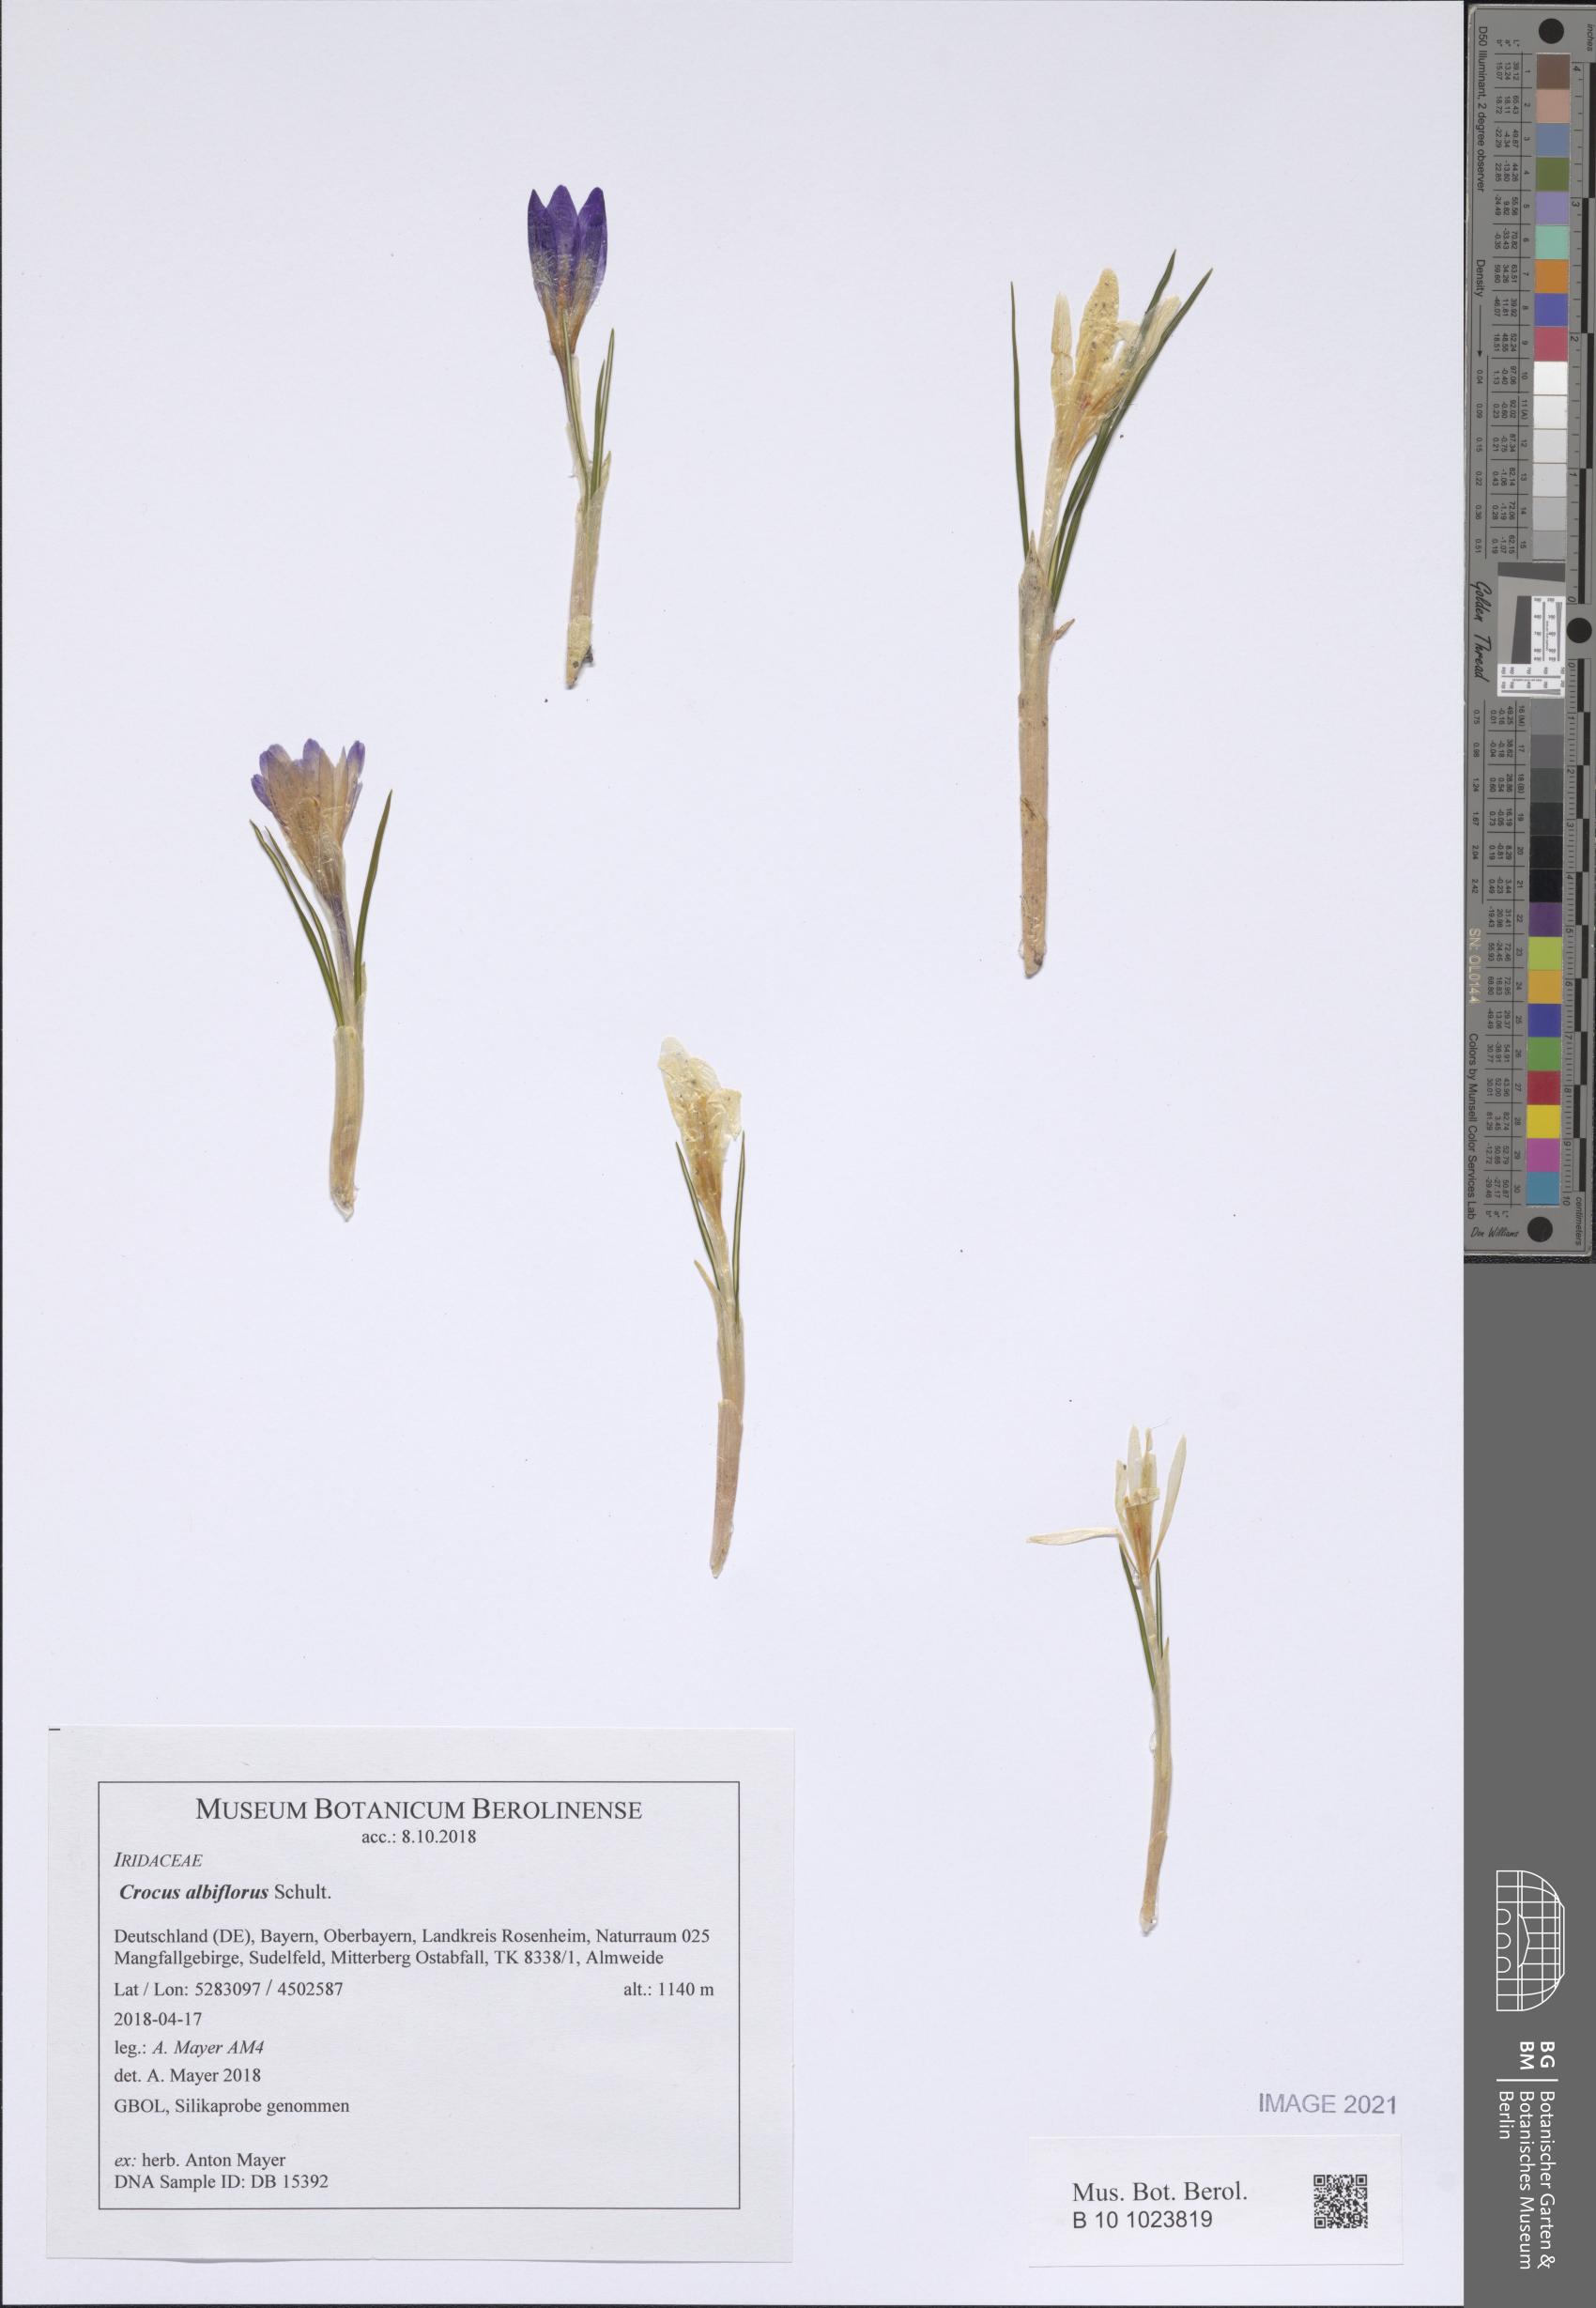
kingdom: Plantae
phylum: Tracheophyta
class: Liliopsida
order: Asparagales
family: Iridaceae
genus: Crocus
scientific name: Crocus vernus
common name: Spring crocus
